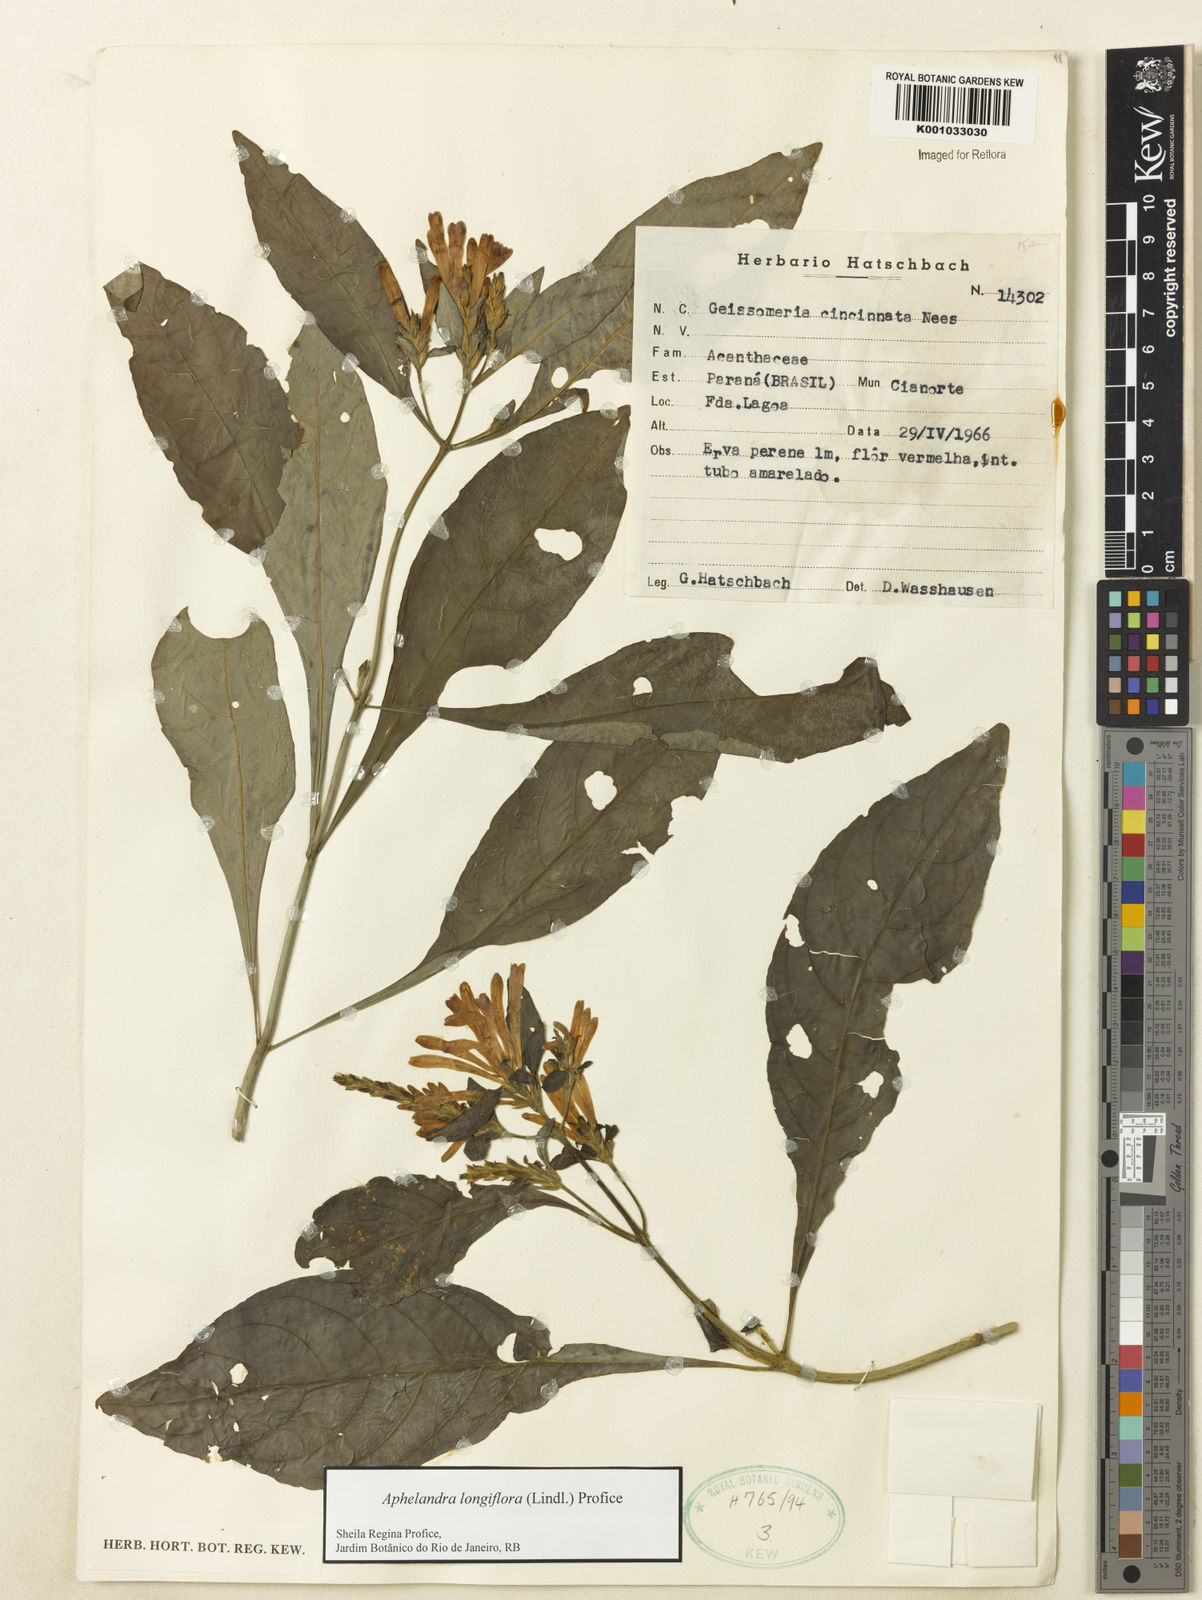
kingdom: Plantae
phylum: Tracheophyta
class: Magnoliopsida
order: Lamiales
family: Acanthaceae
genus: Aphelandra
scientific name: Aphelandra longiflora
